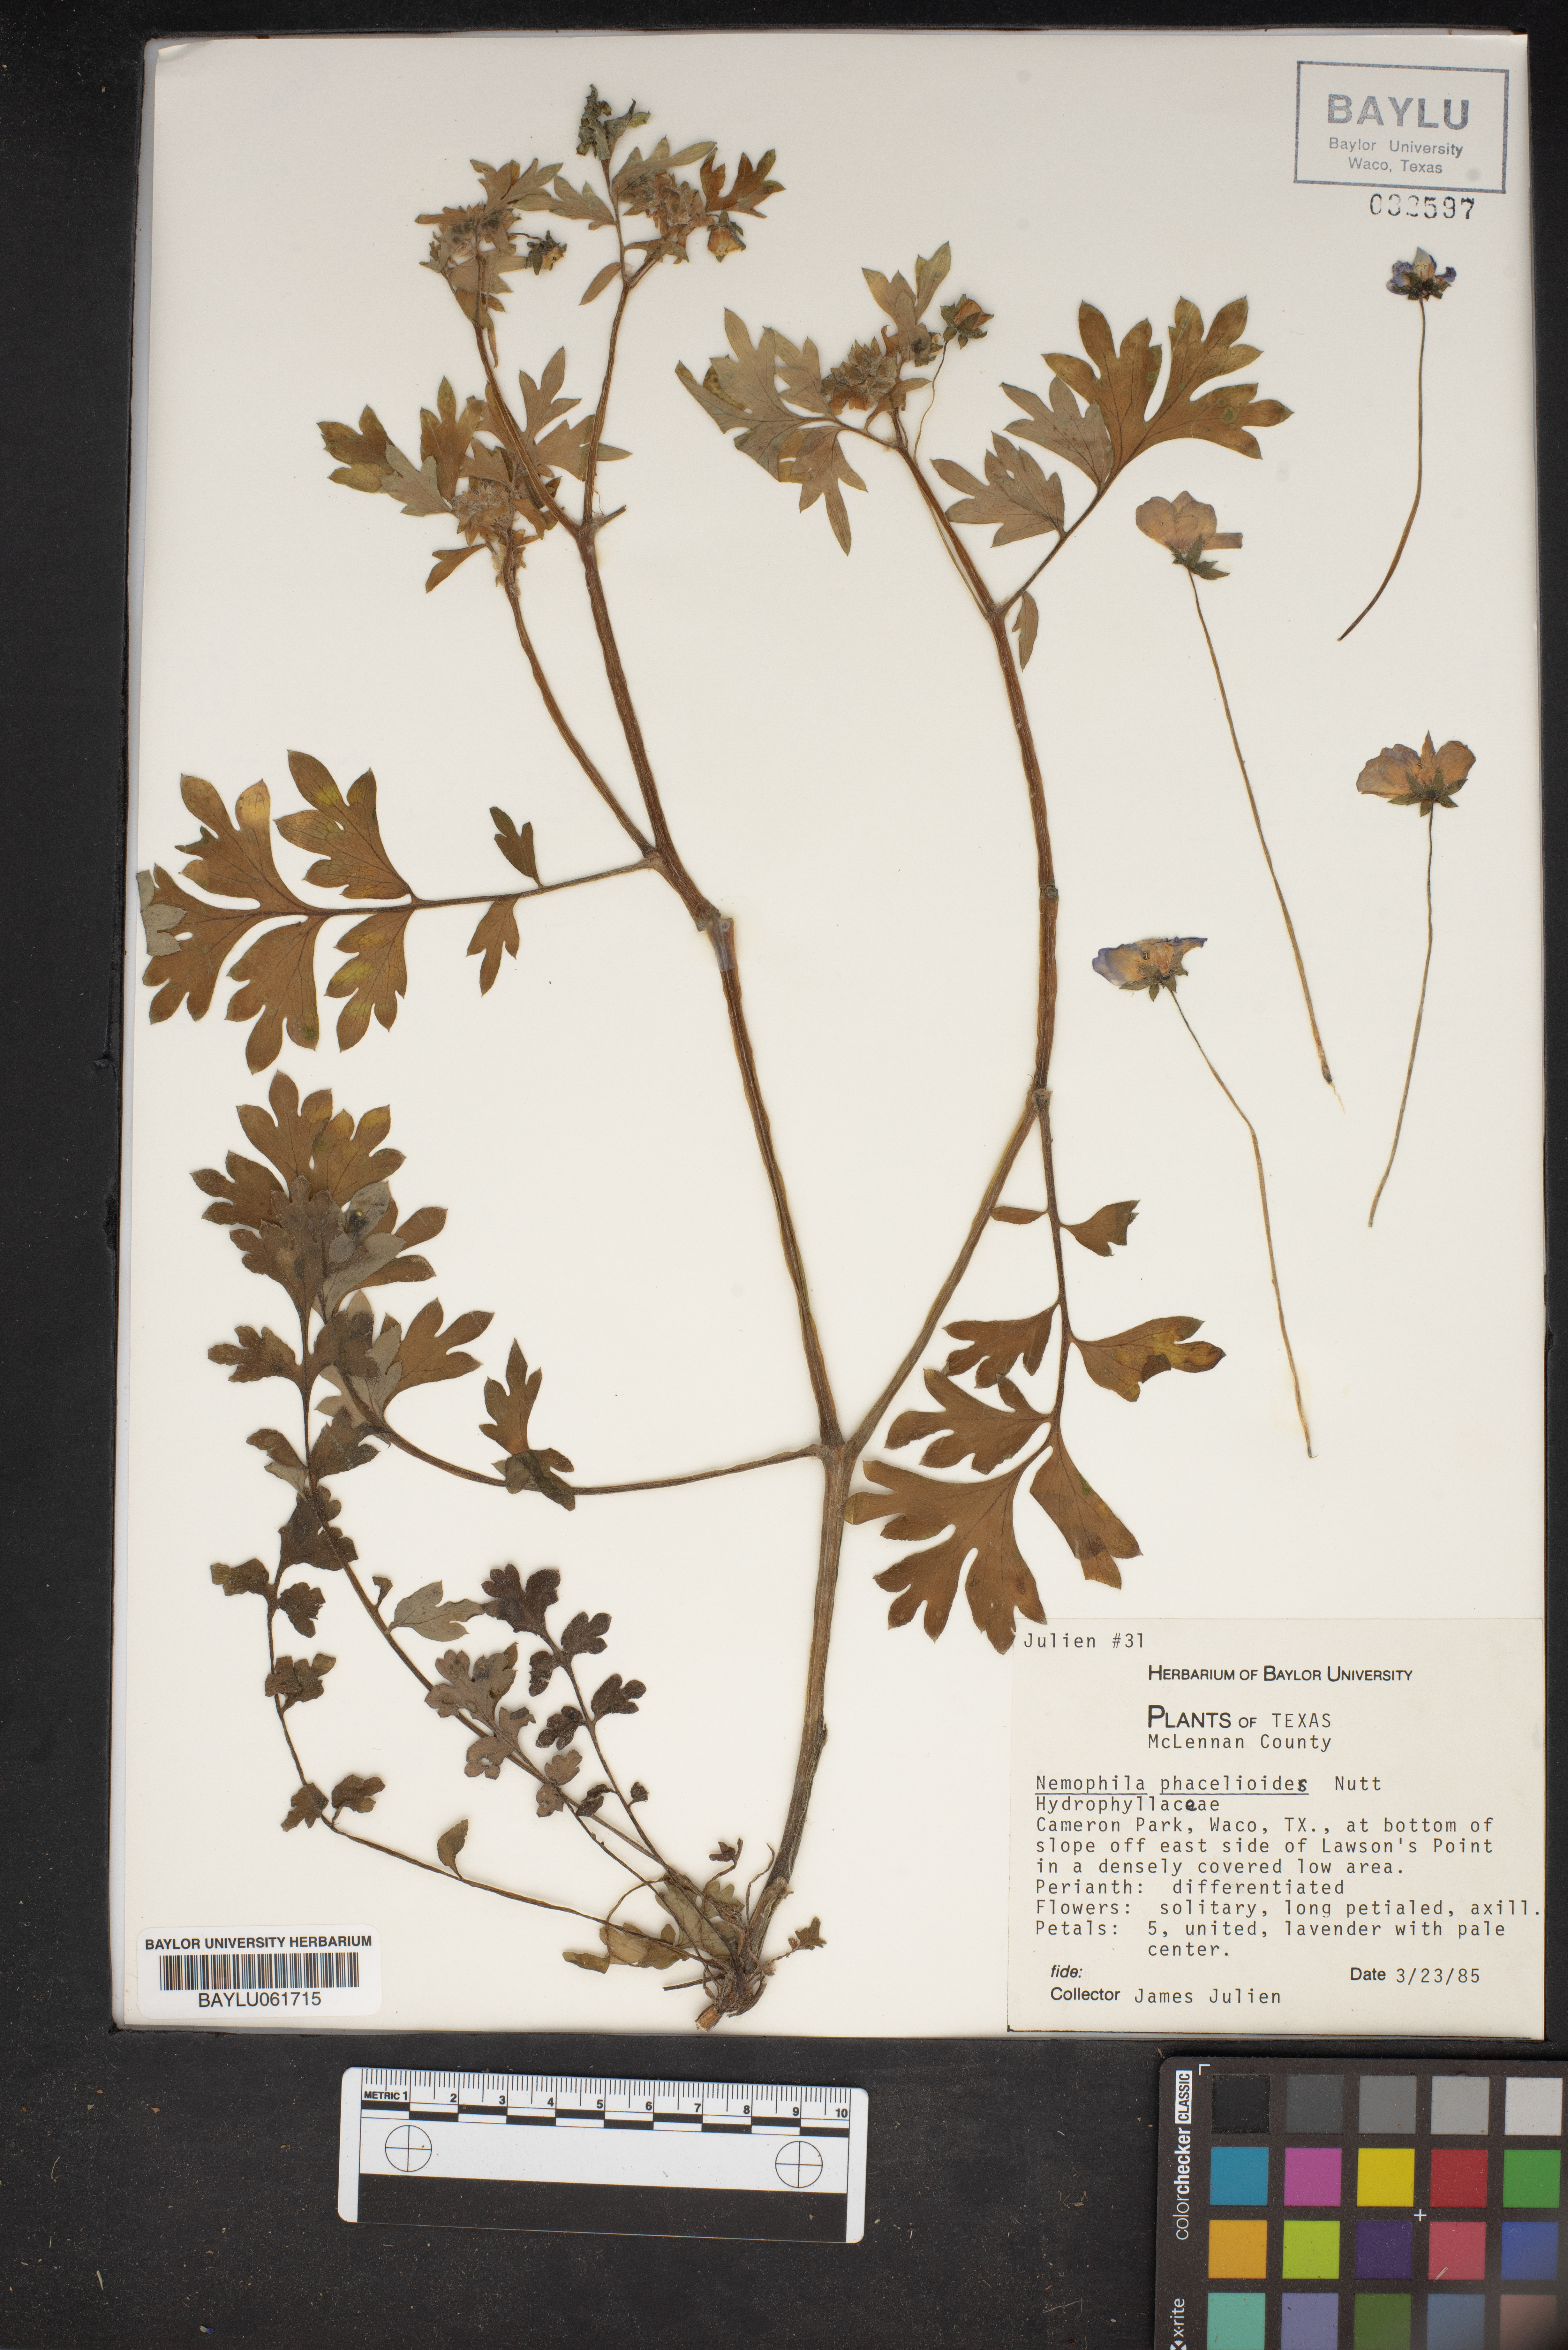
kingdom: Plantae
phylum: Tracheophyta
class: Magnoliopsida
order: Boraginales
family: Hydrophyllaceae
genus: Nemophila
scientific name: Nemophila phacelioides
